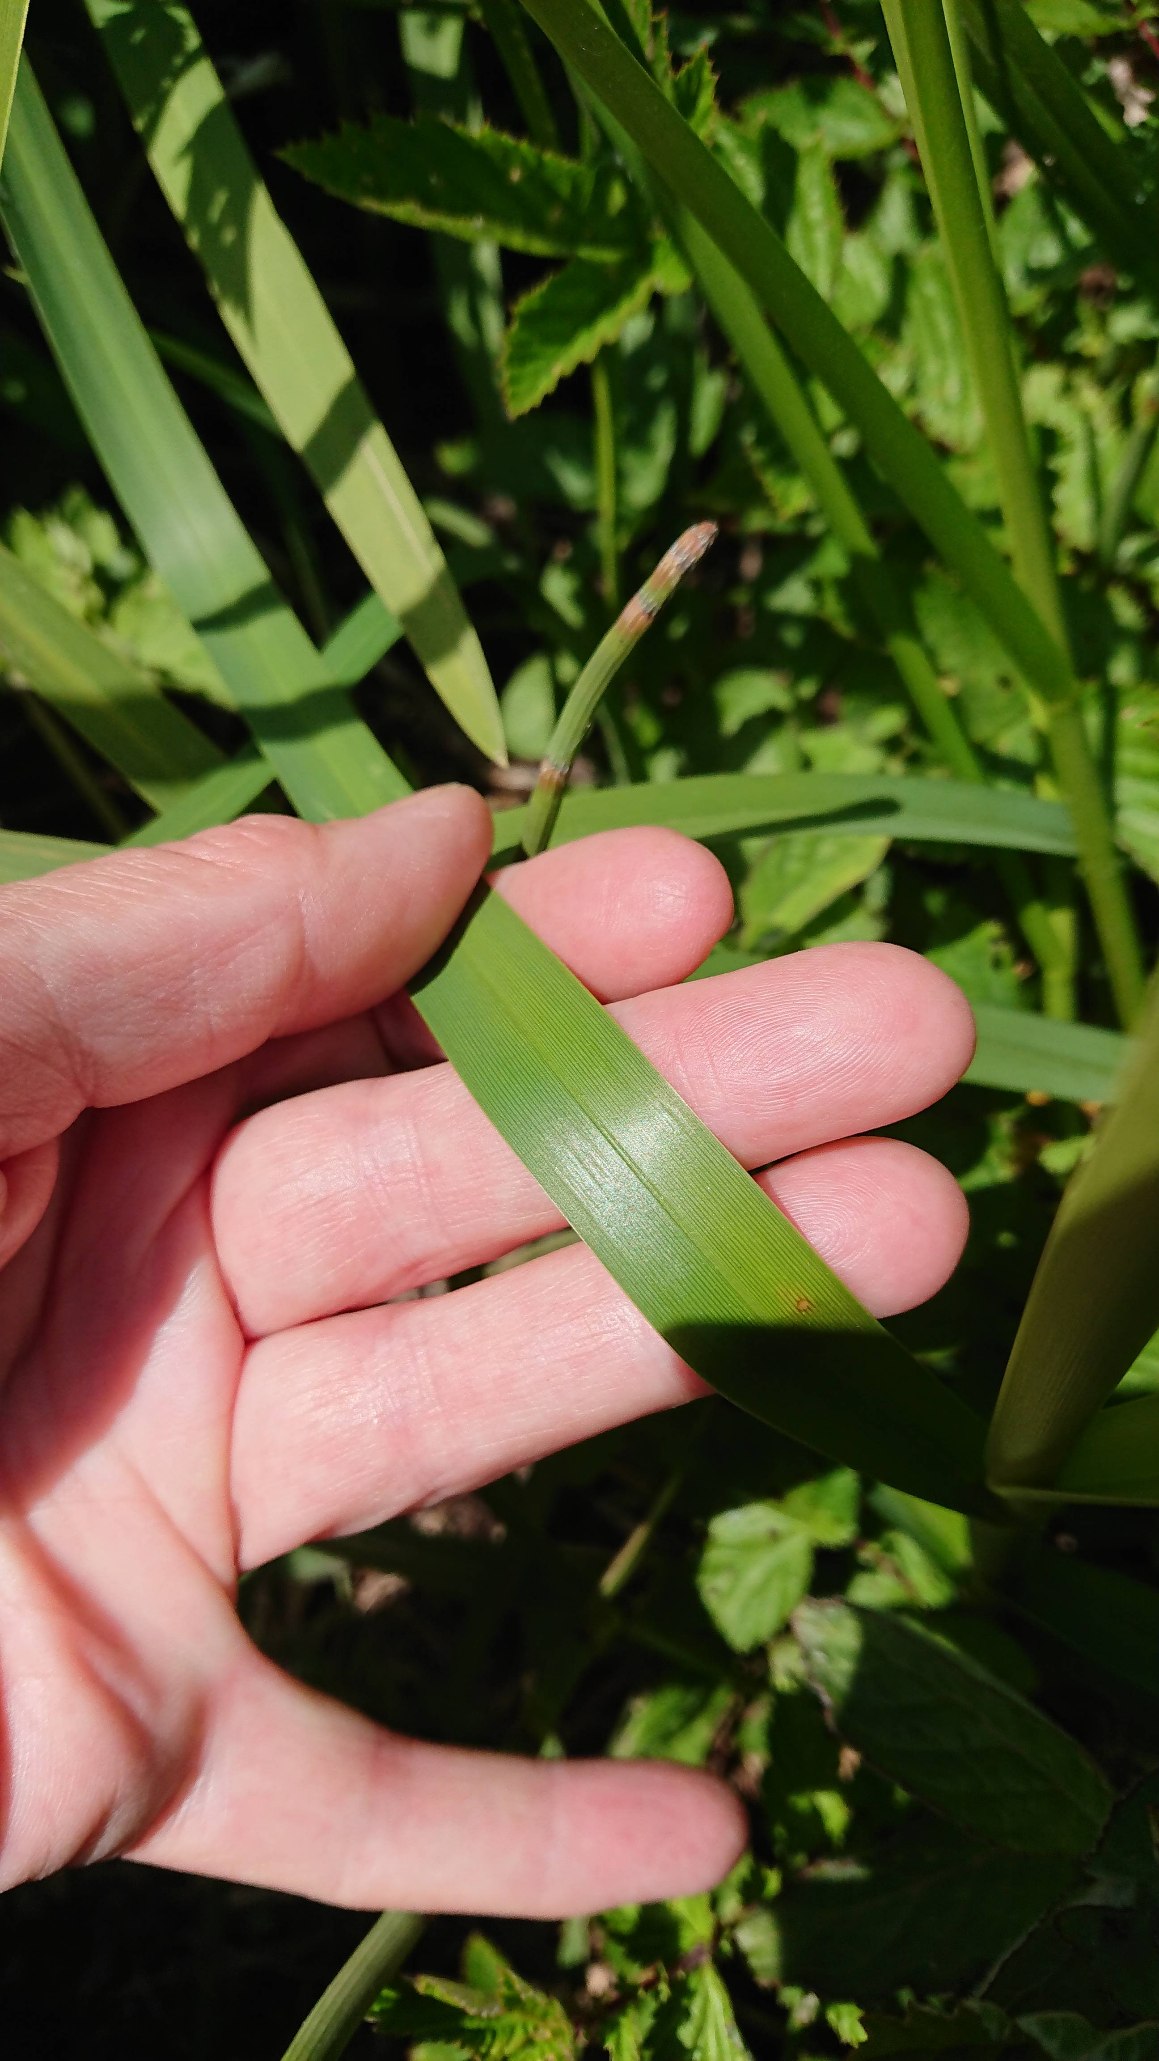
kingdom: Plantae
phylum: Tracheophyta
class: Liliopsida
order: Poales
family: Poaceae
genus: Glyceria
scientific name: Glyceria maxima
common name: Høj sødgræs
